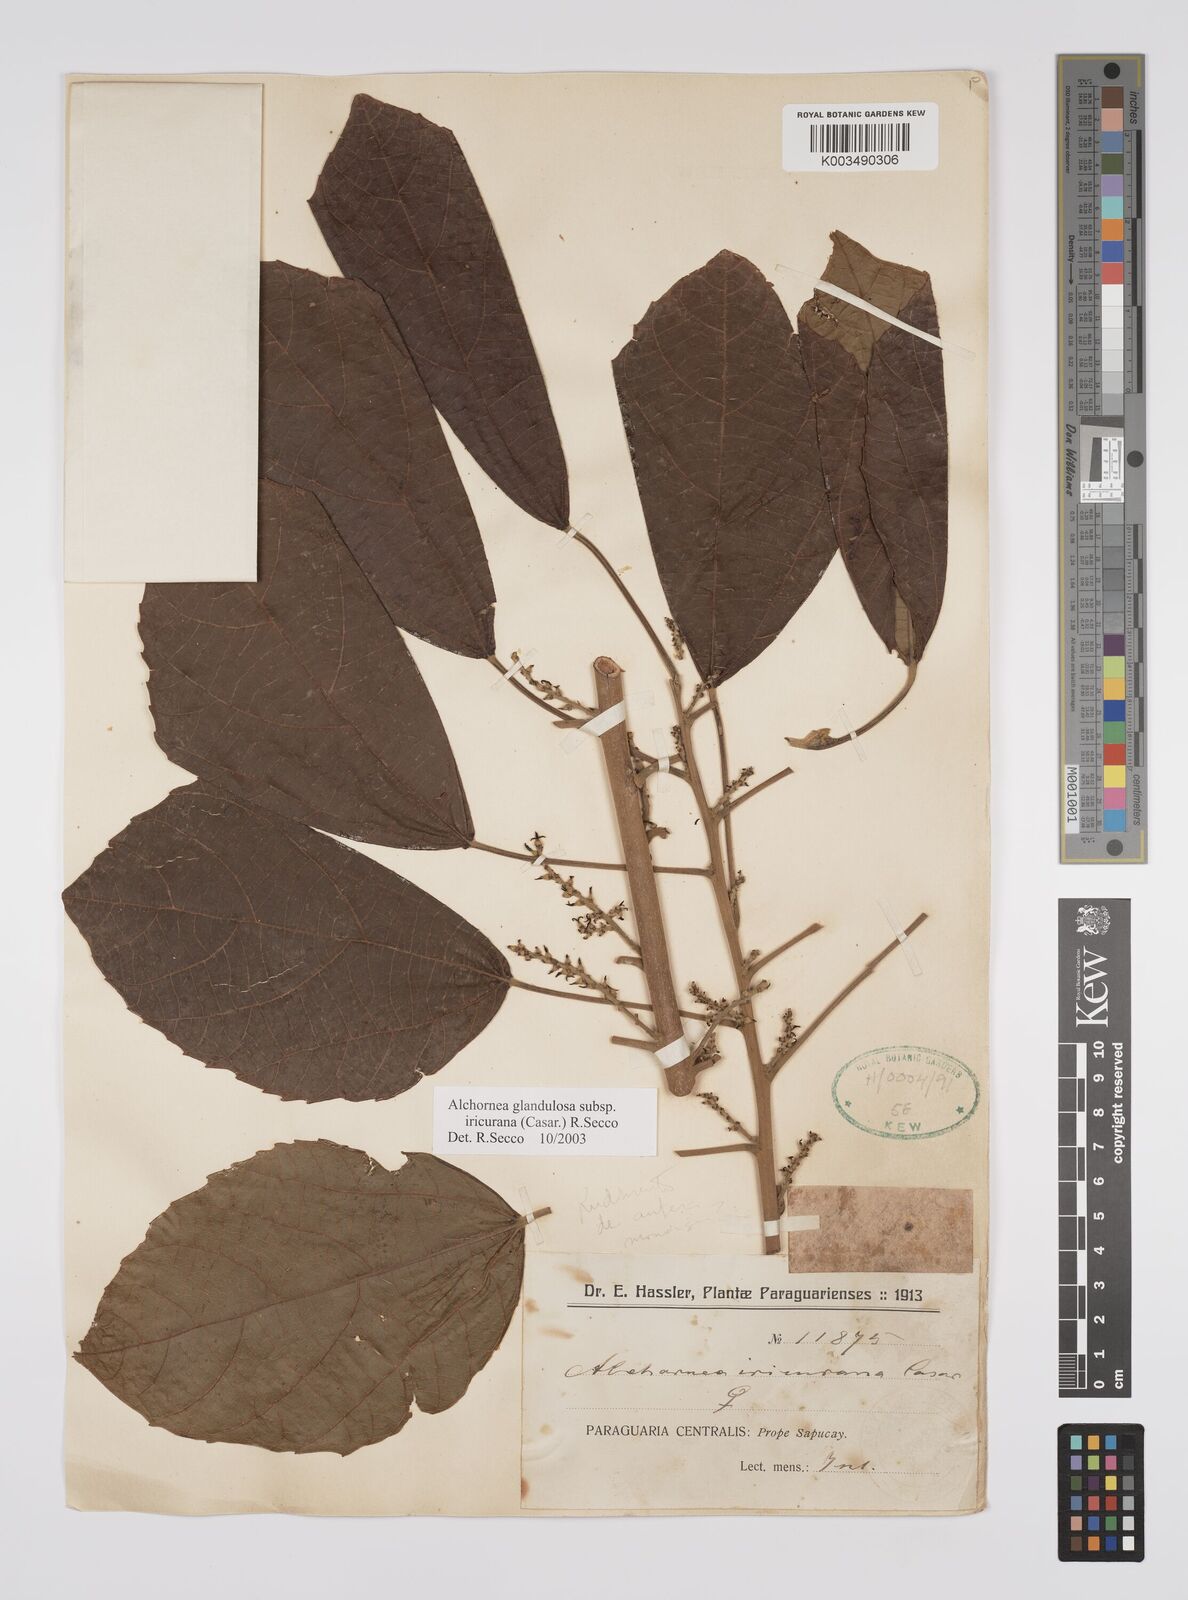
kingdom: Plantae
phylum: Tracheophyta
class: Magnoliopsida
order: Malpighiales
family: Euphorbiaceae
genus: Alchornea
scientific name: Alchornea glandulosa
